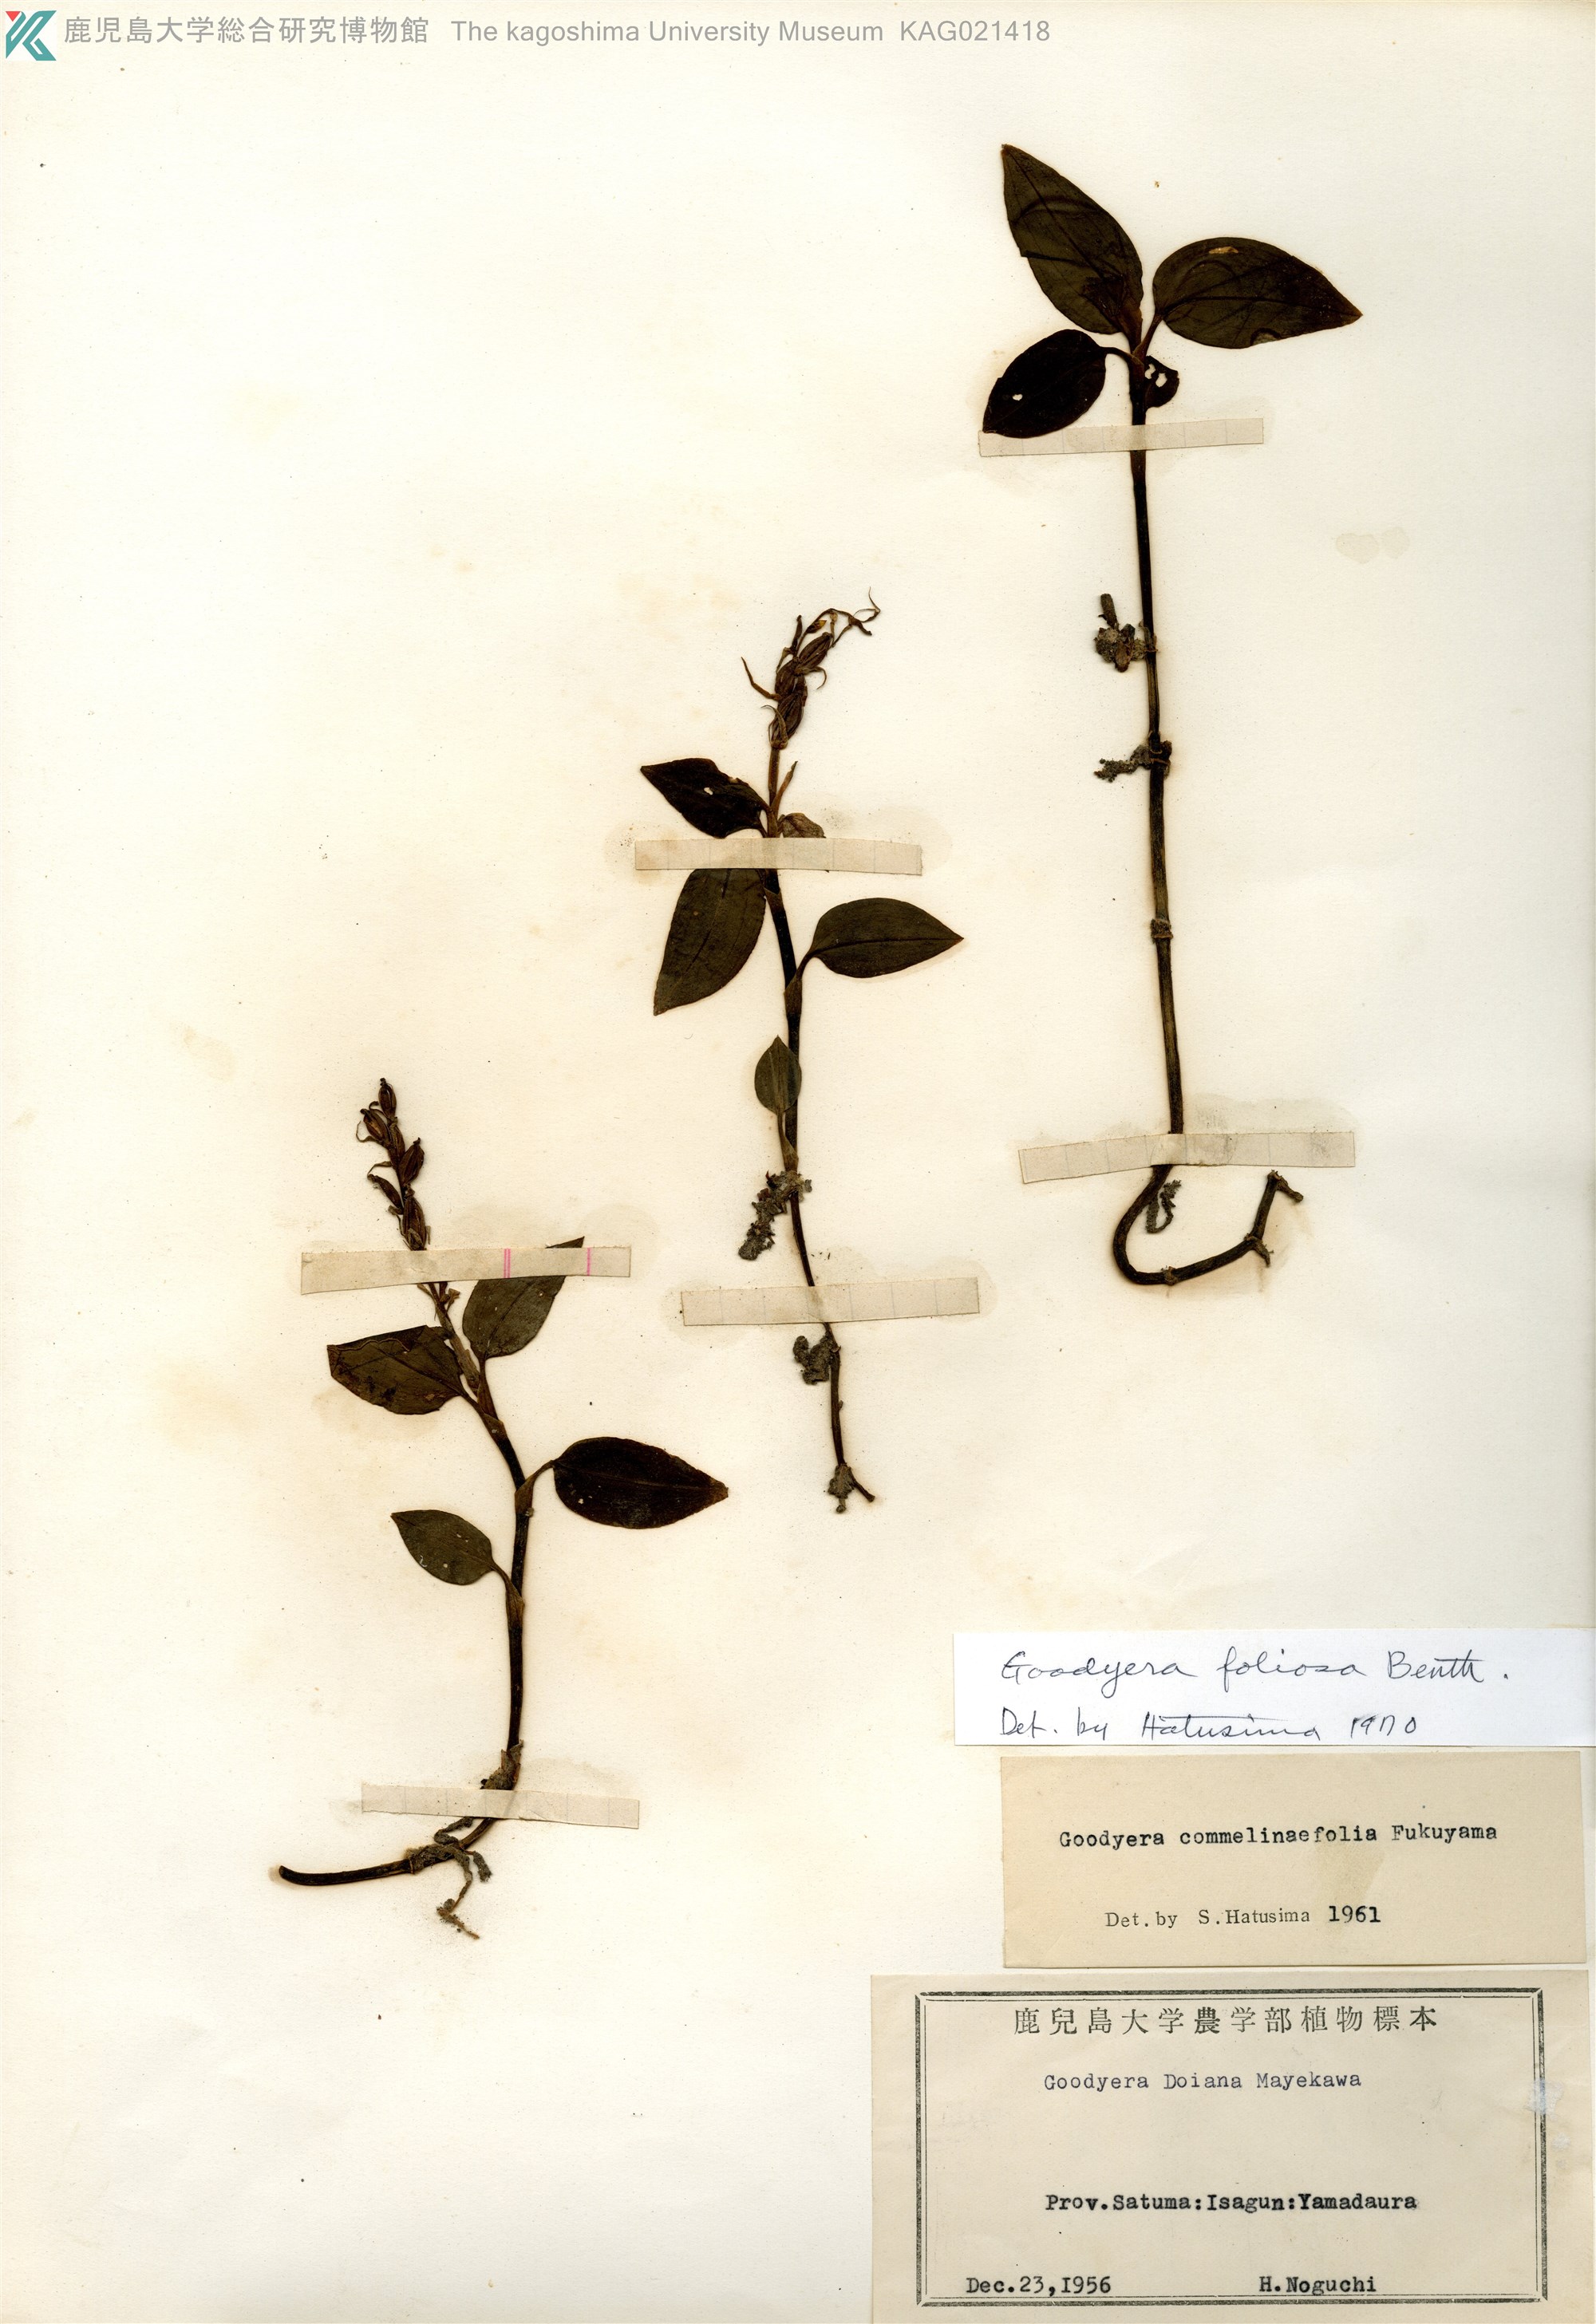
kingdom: Plantae
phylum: Tracheophyta
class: Liliopsida
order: Asparagales
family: Orchidaceae
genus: Goodyera
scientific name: Goodyera foliosa
